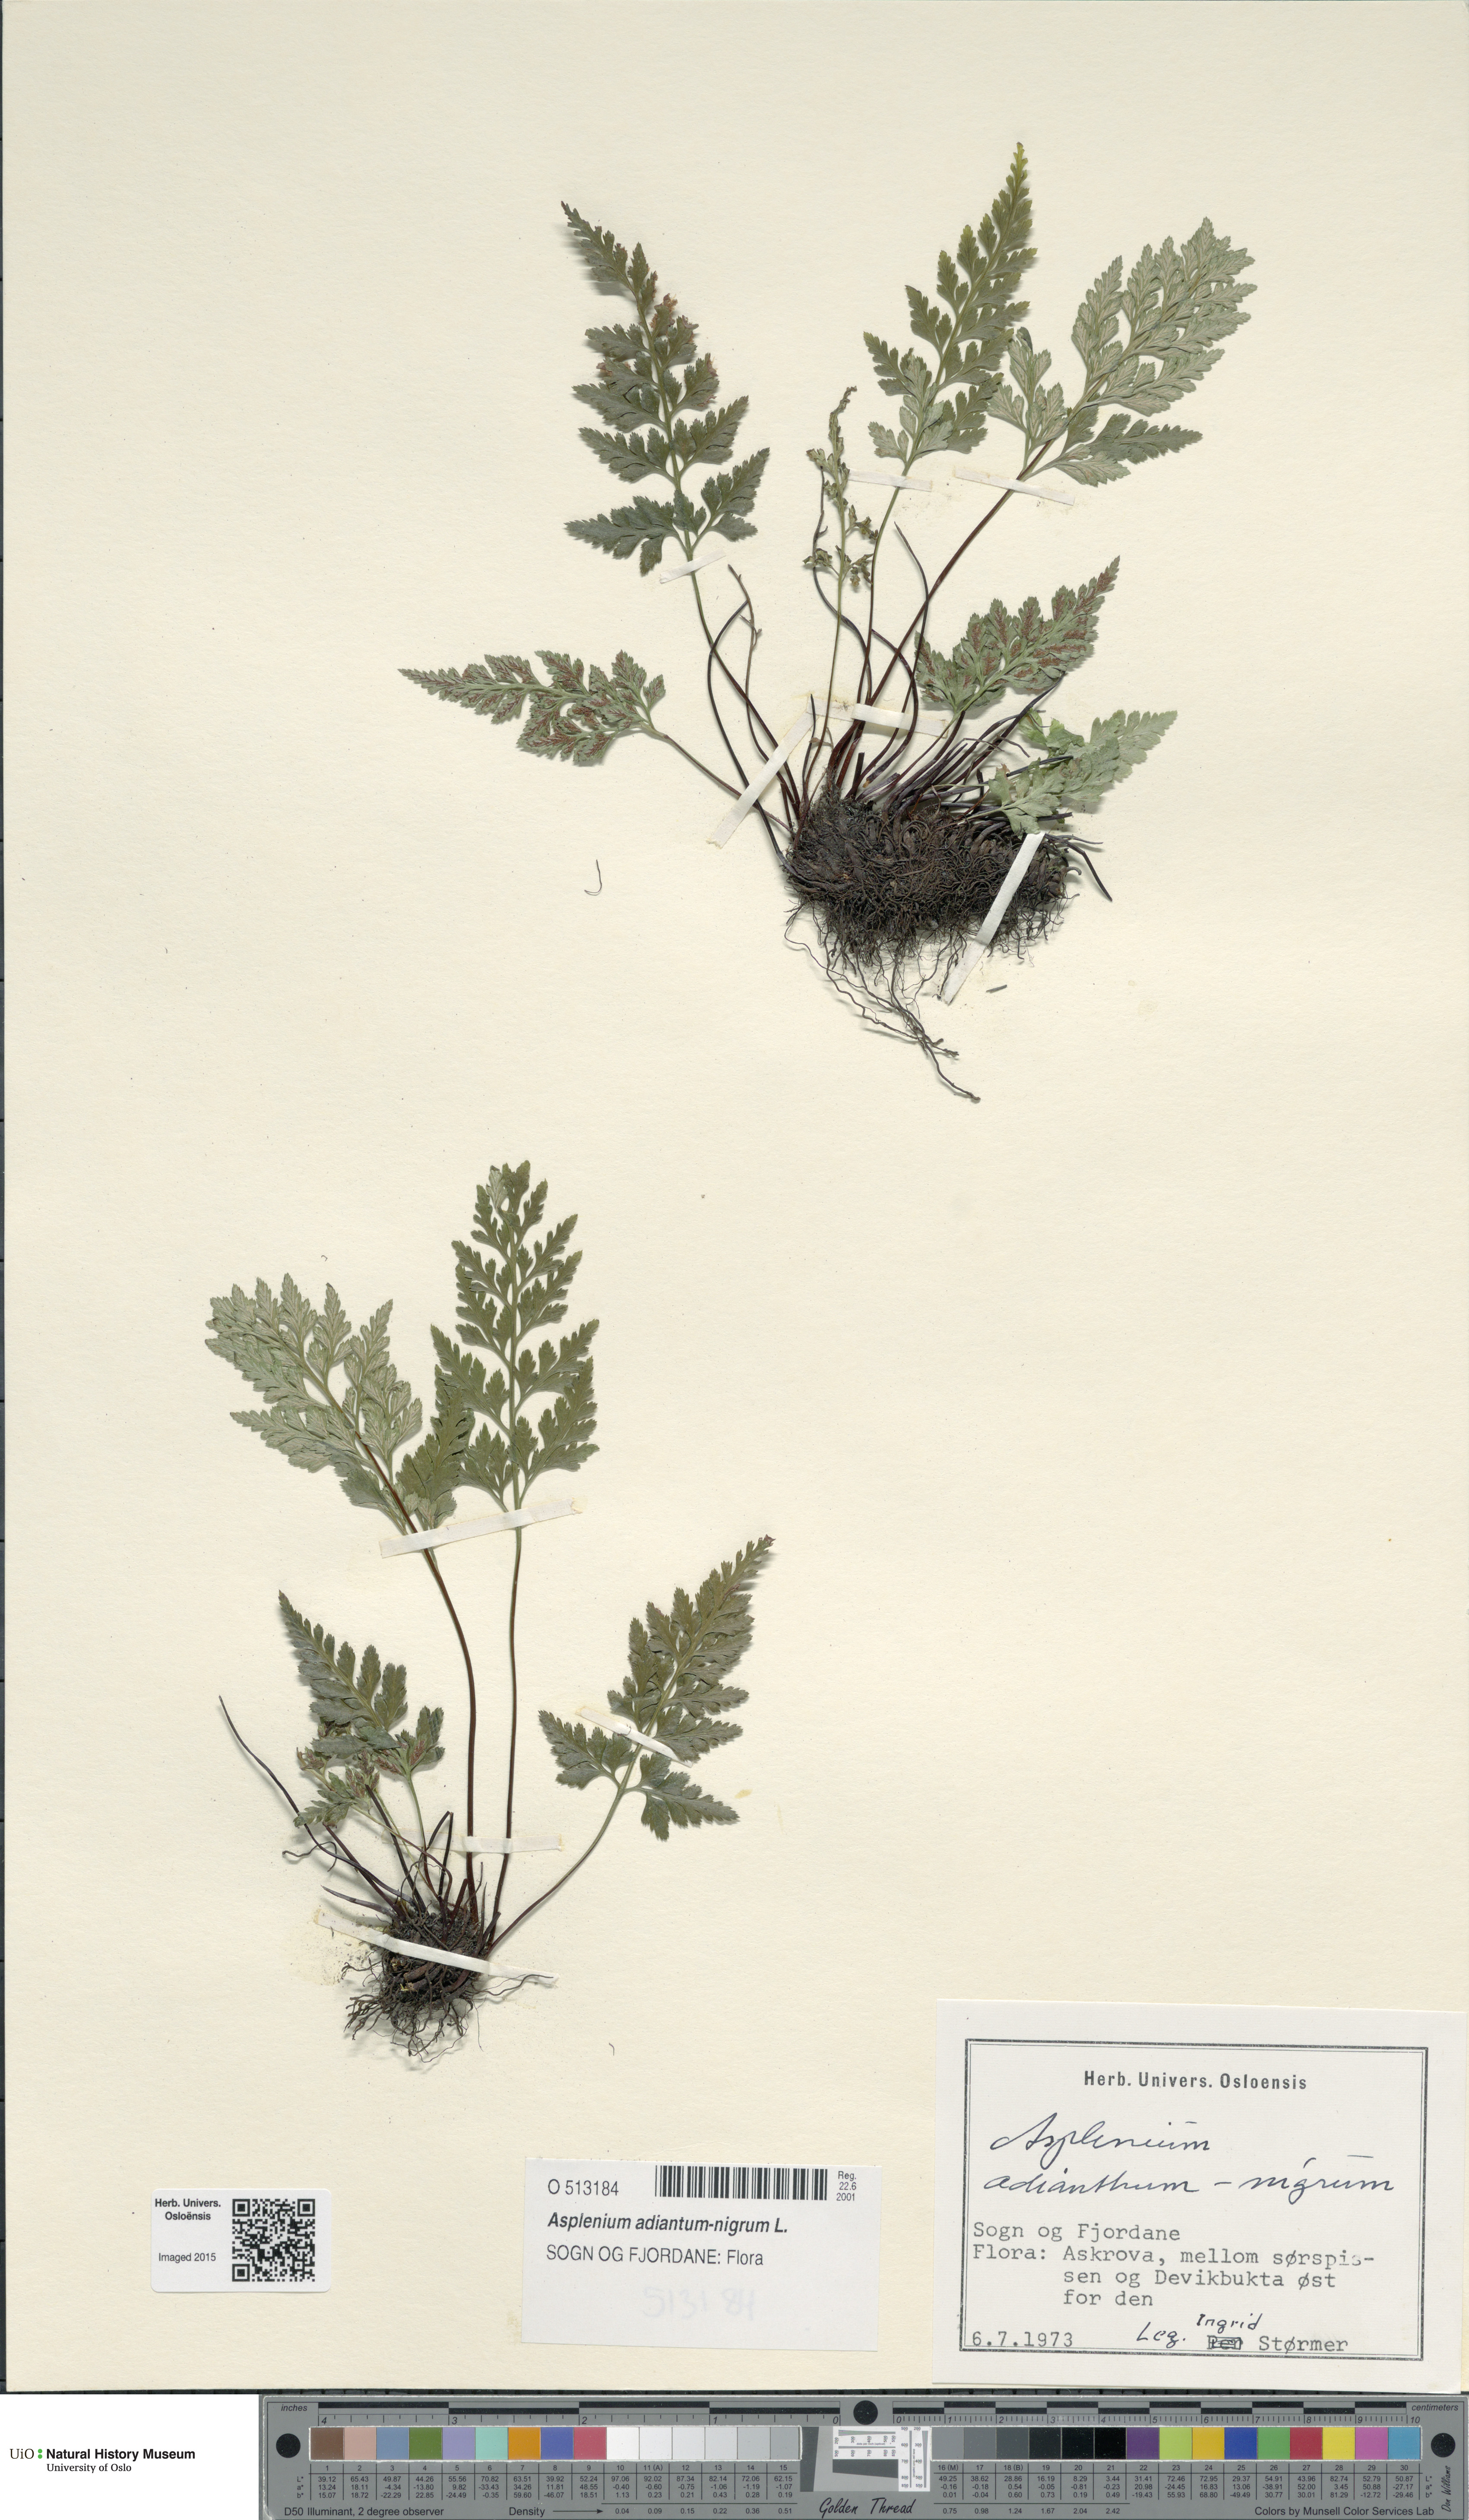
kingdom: Plantae
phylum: Tracheophyta
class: Polypodiopsida
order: Polypodiales
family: Aspleniaceae
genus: Asplenium
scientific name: Asplenium adiantum-nigrum
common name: Black spleenwort
